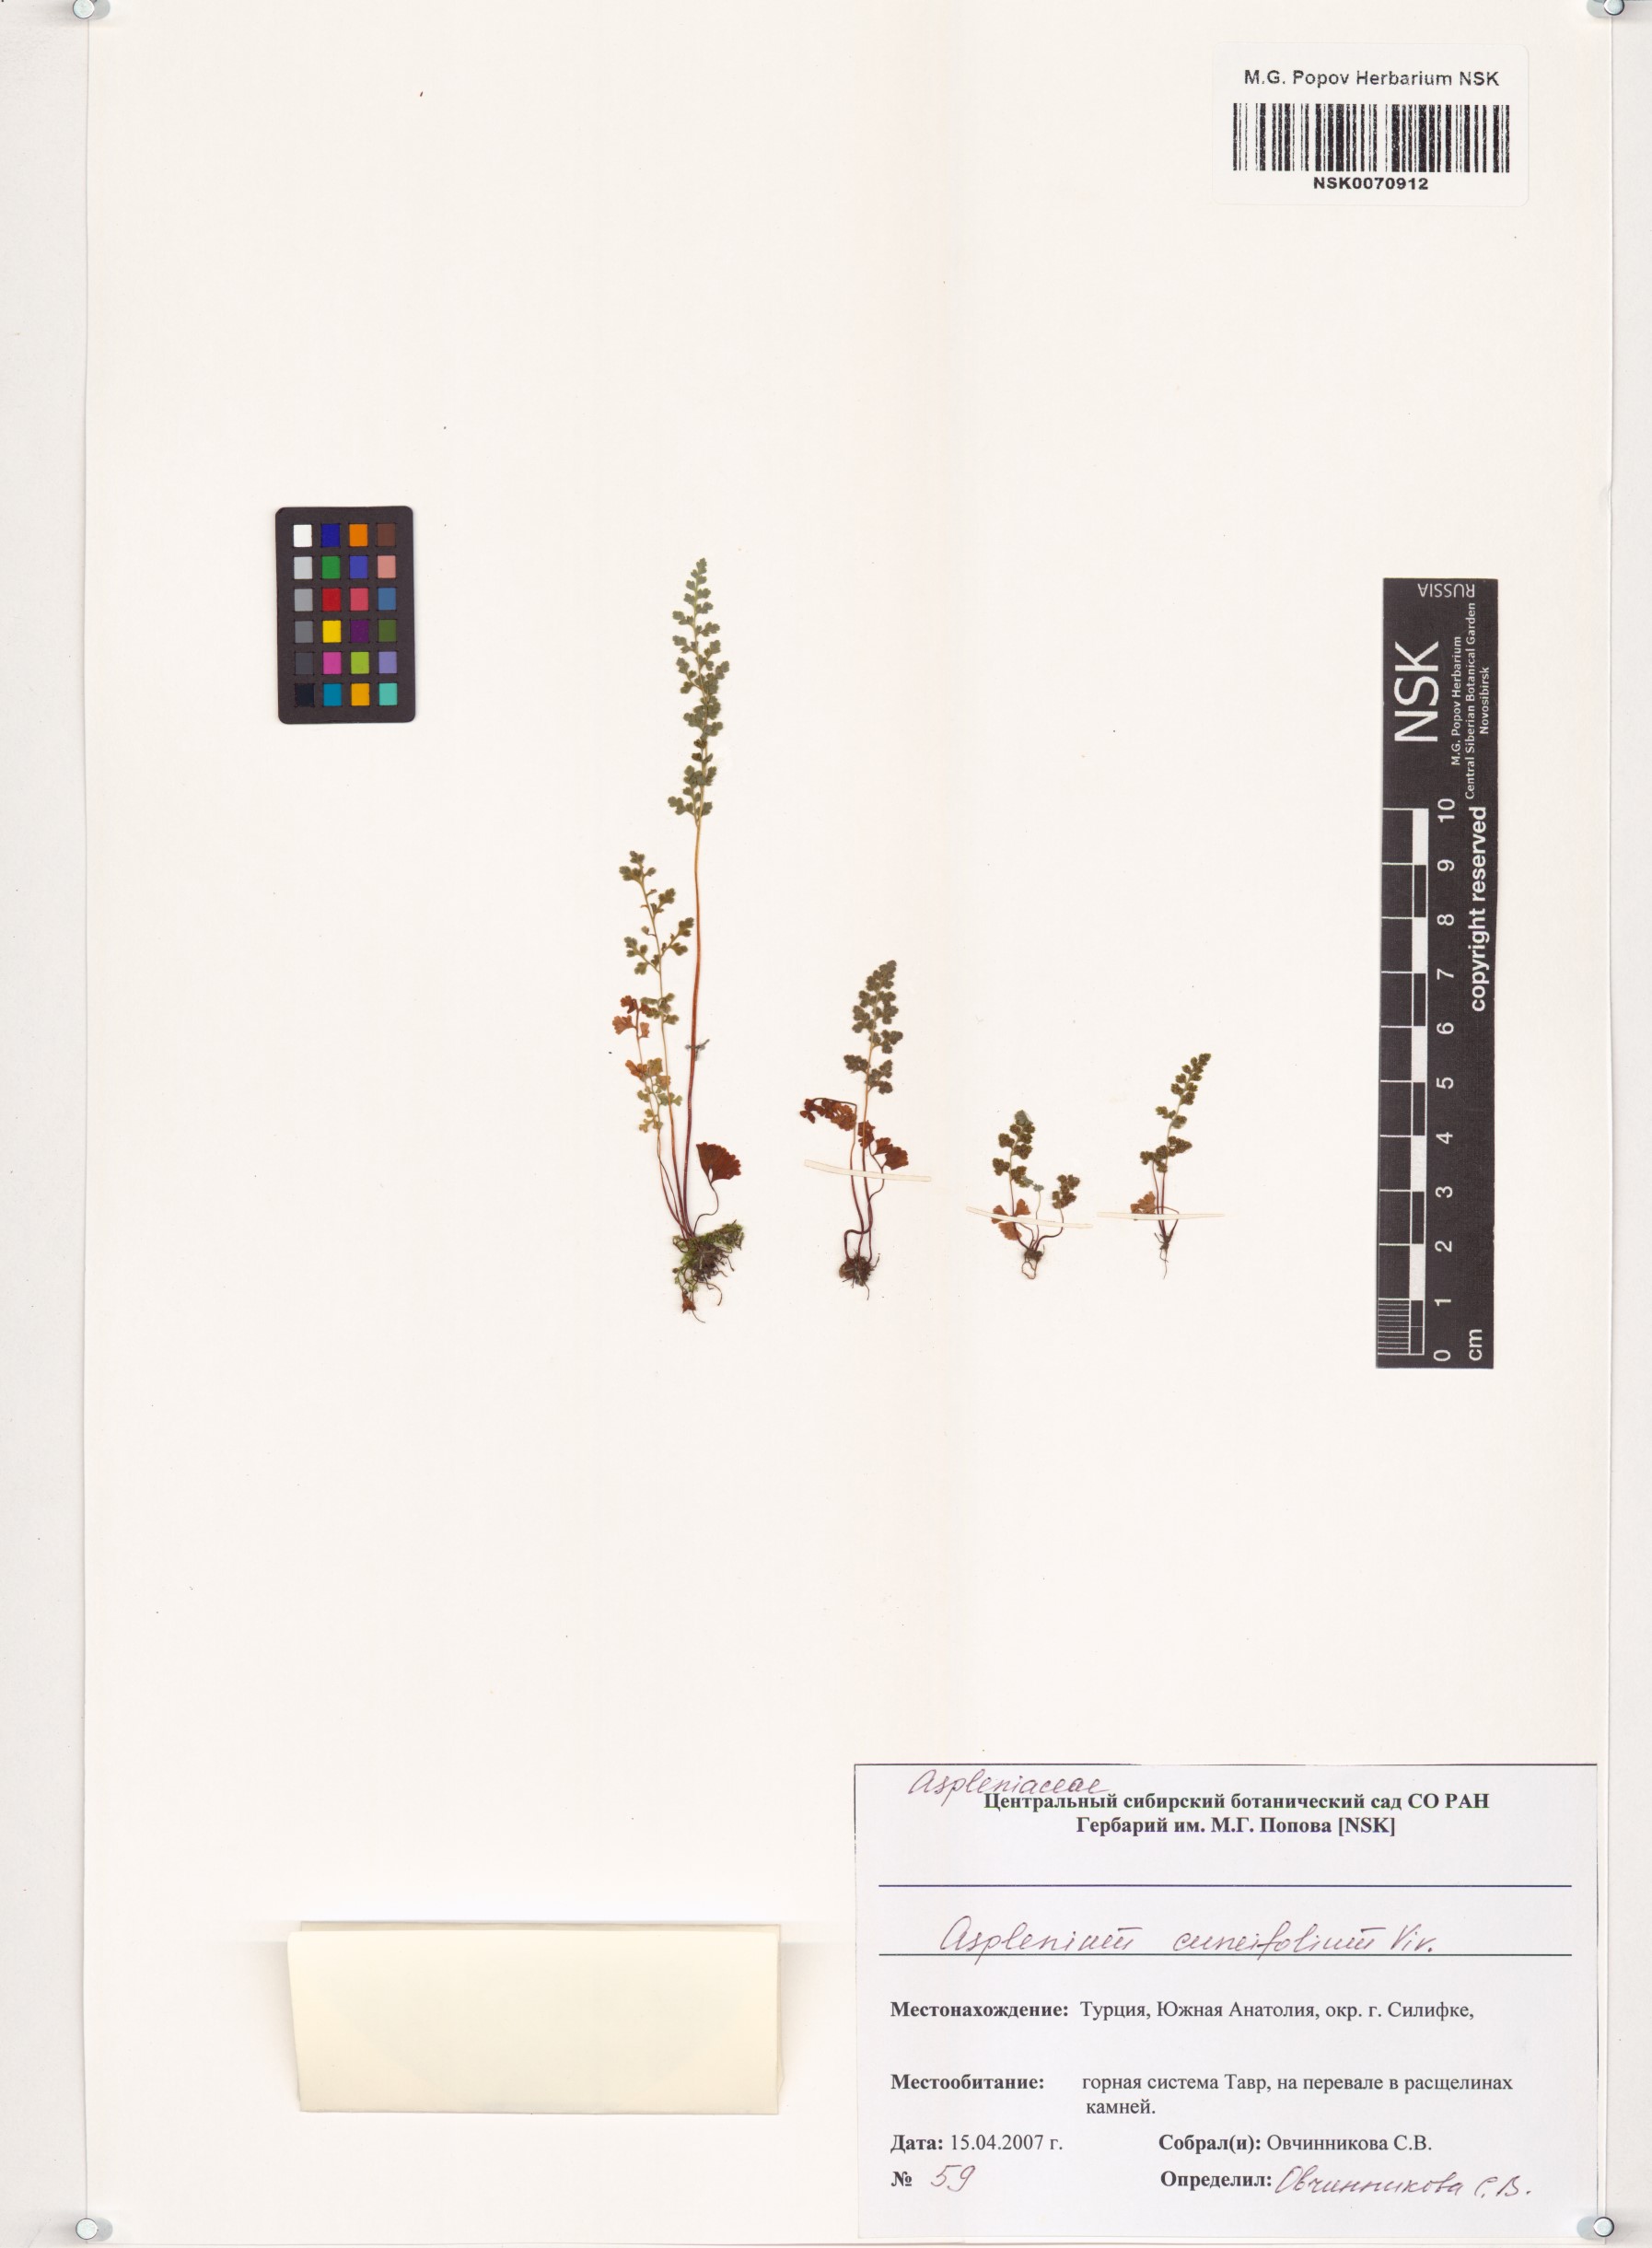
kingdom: Plantae
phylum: Tracheophyta
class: Polypodiopsida
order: Polypodiales
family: Aspleniaceae
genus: Asplenium
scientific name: Asplenium cuneifolium
